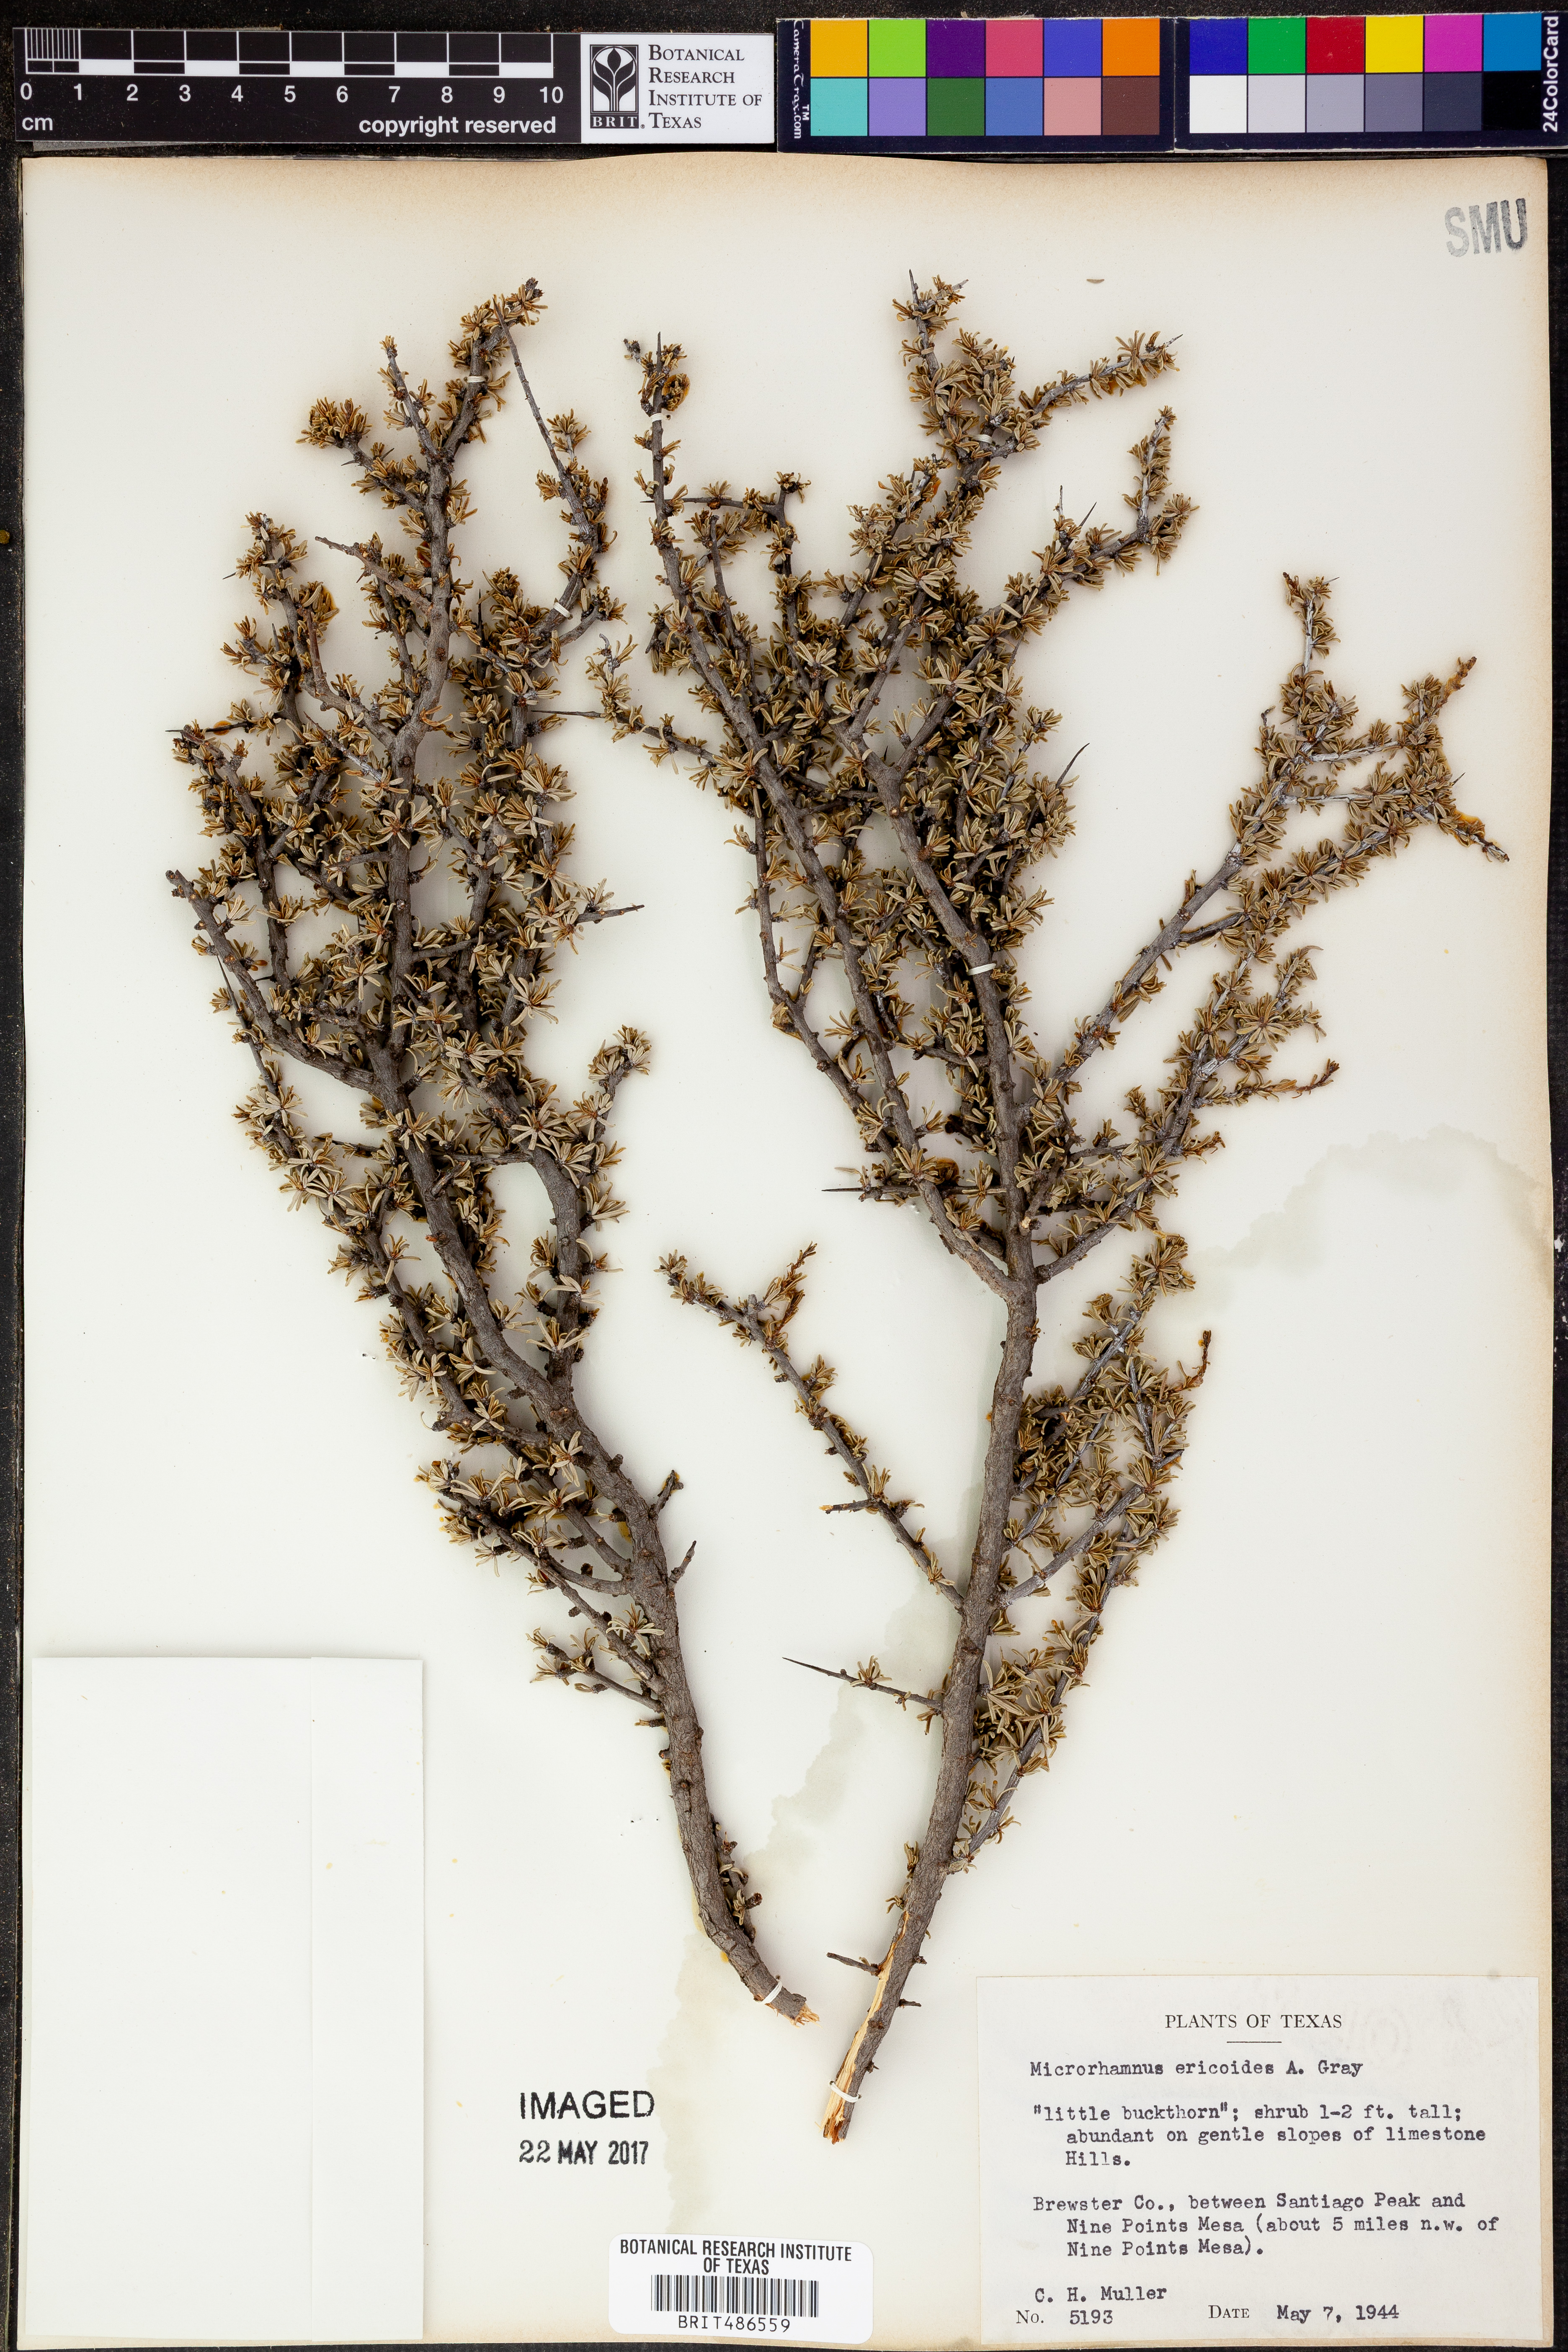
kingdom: Plantae
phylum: Tracheophyta
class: Magnoliopsida
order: Rosales
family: Rhamnaceae
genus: Condalia
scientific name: Condalia ericoides
